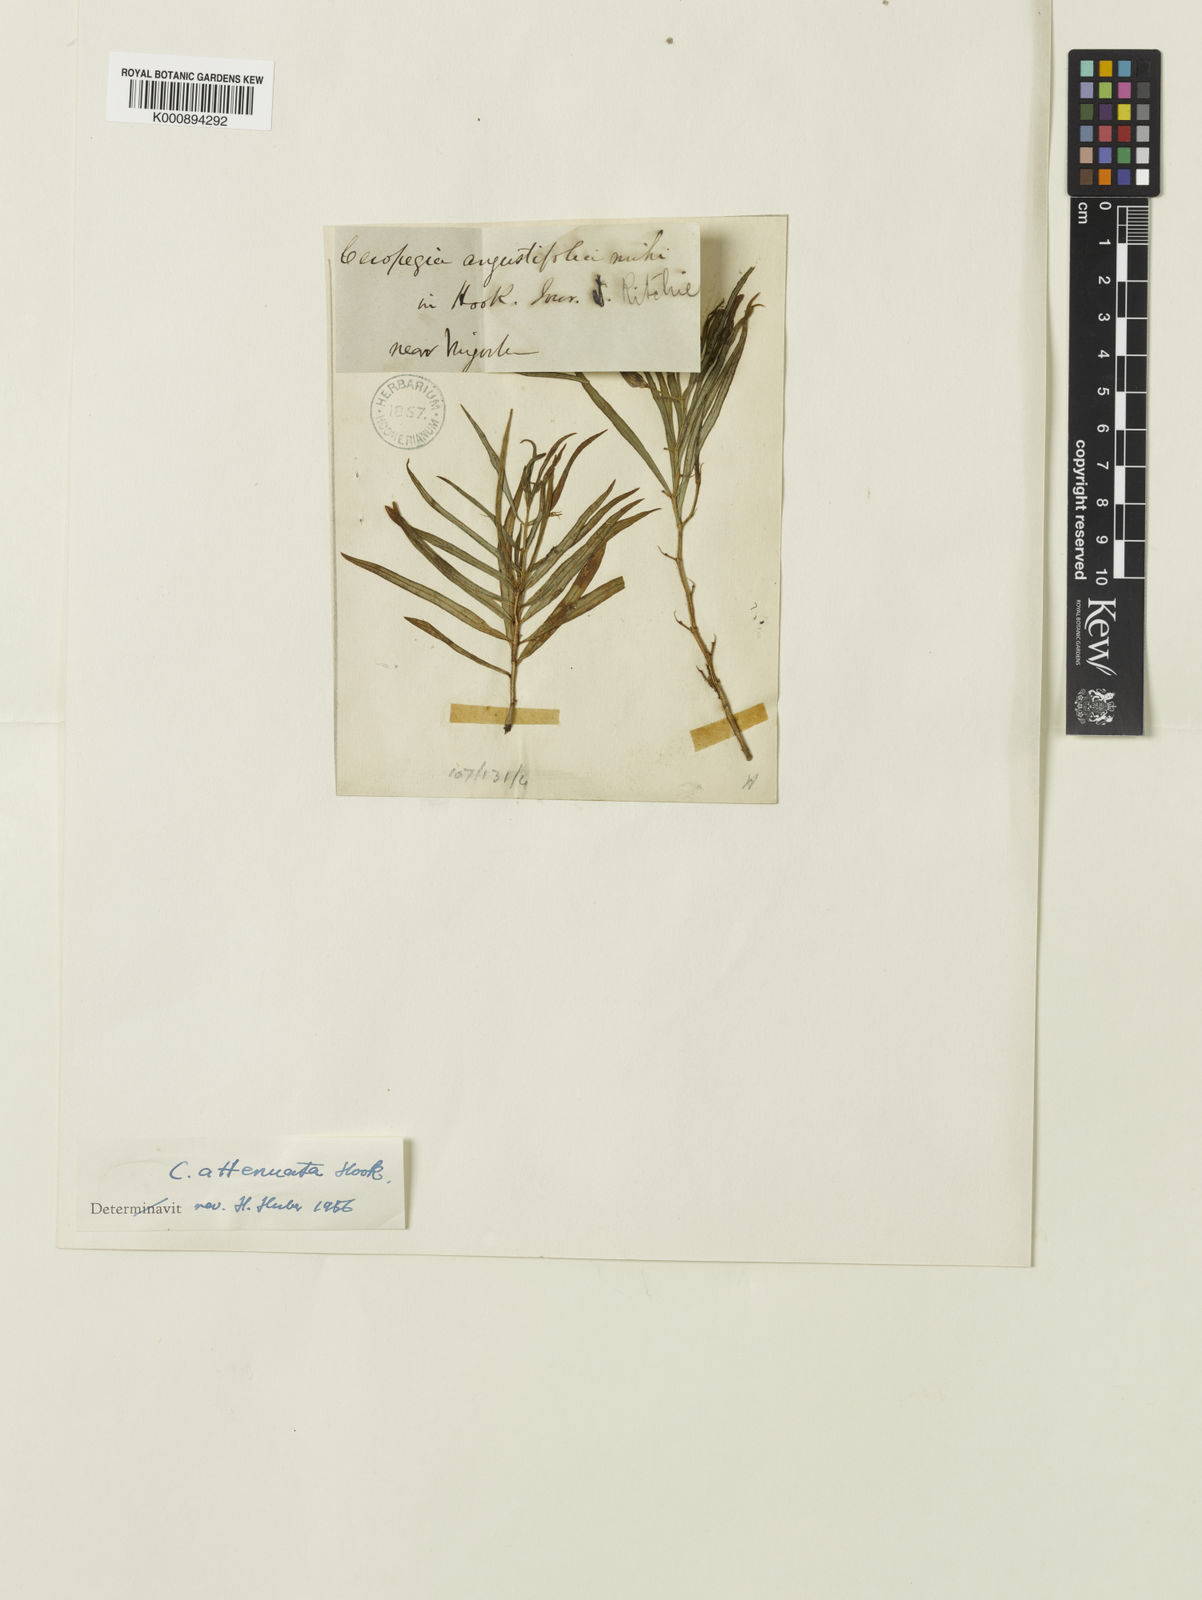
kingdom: Plantae
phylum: Tracheophyta
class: Magnoliopsida
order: Gentianales
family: Apocynaceae
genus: Ceropegia
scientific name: Ceropegia attenuata
